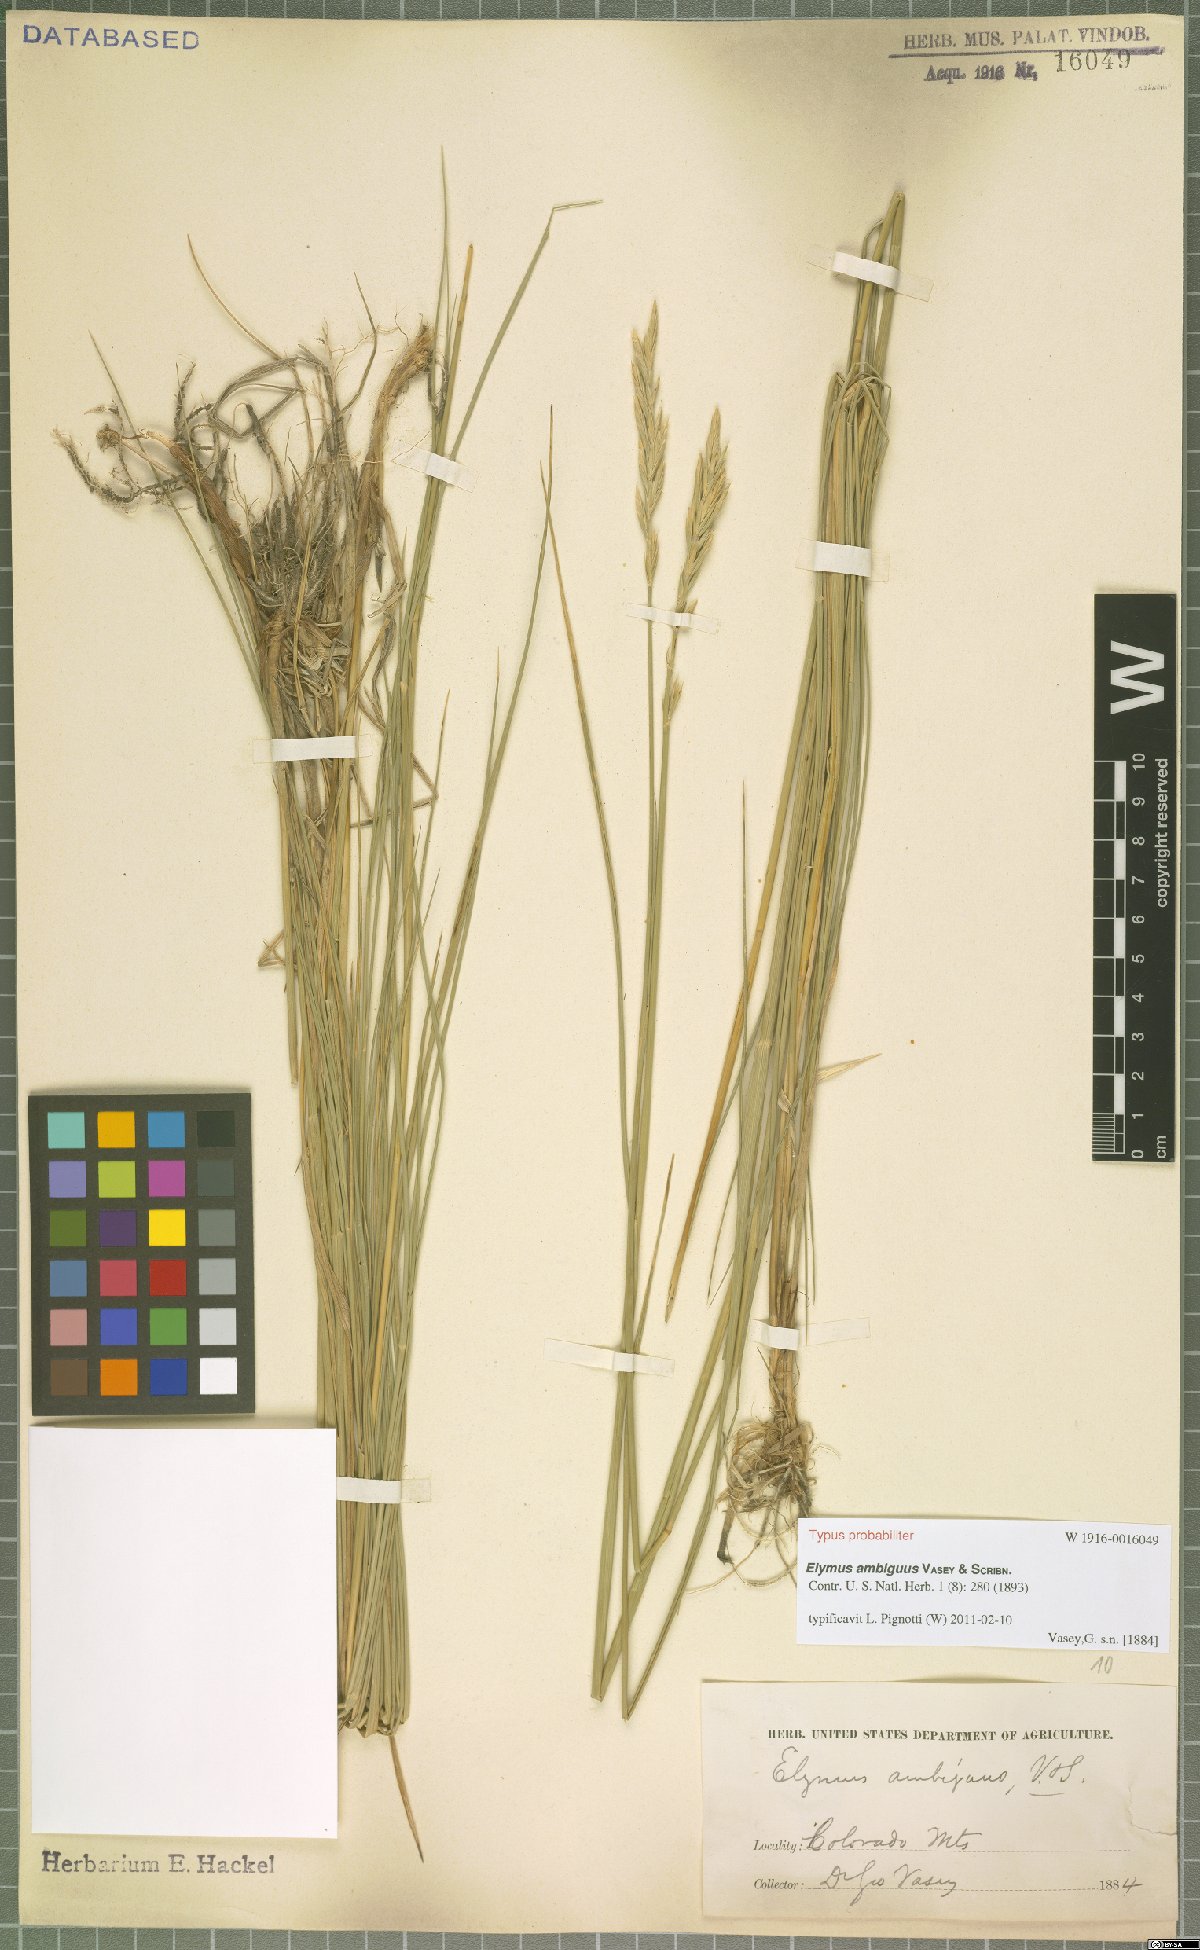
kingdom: Plantae
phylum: Tracheophyta
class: Liliopsida
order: Poales
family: Poaceae
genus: Leymus
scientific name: Leymus ambiguus
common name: Colorado wild rye
